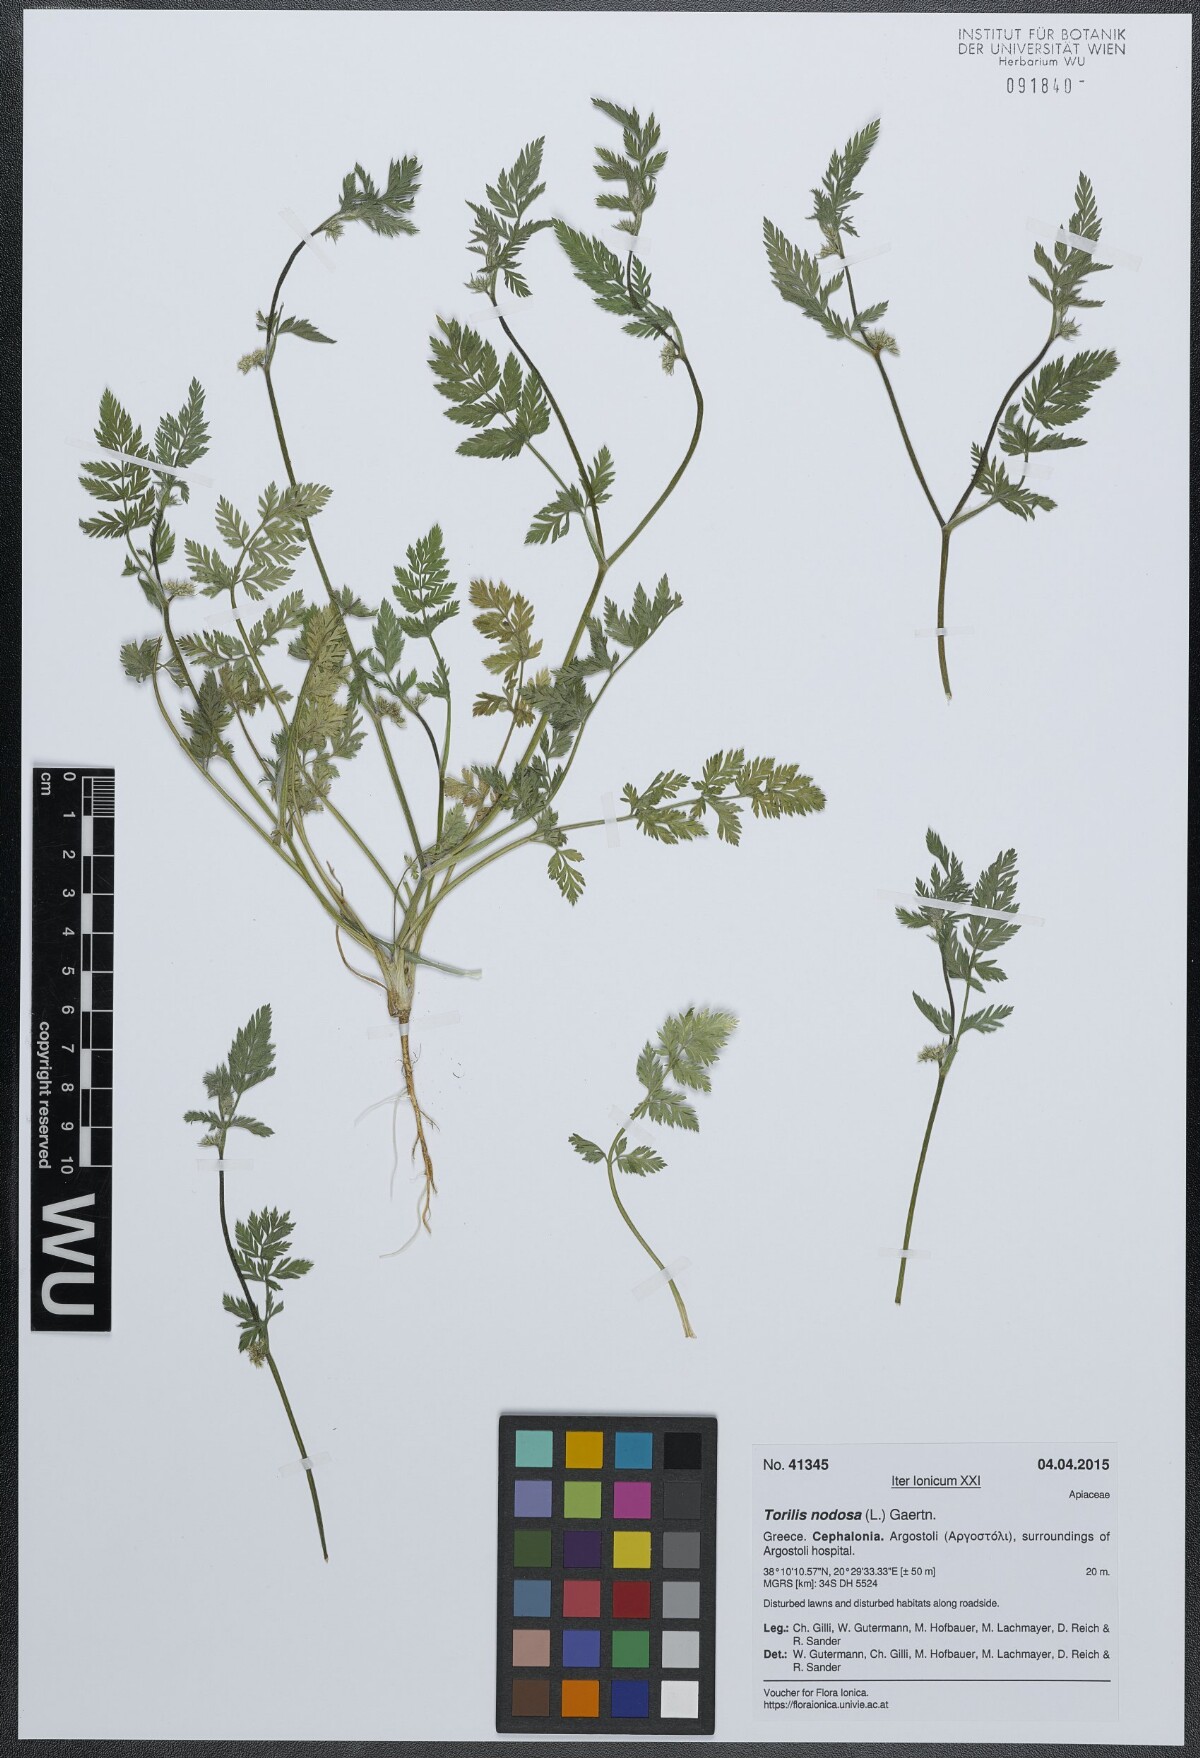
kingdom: Plantae
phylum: Tracheophyta
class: Magnoliopsida
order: Apiales
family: Apiaceae
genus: Torilis
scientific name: Torilis nodosa
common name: Knotted hedge-parsley
